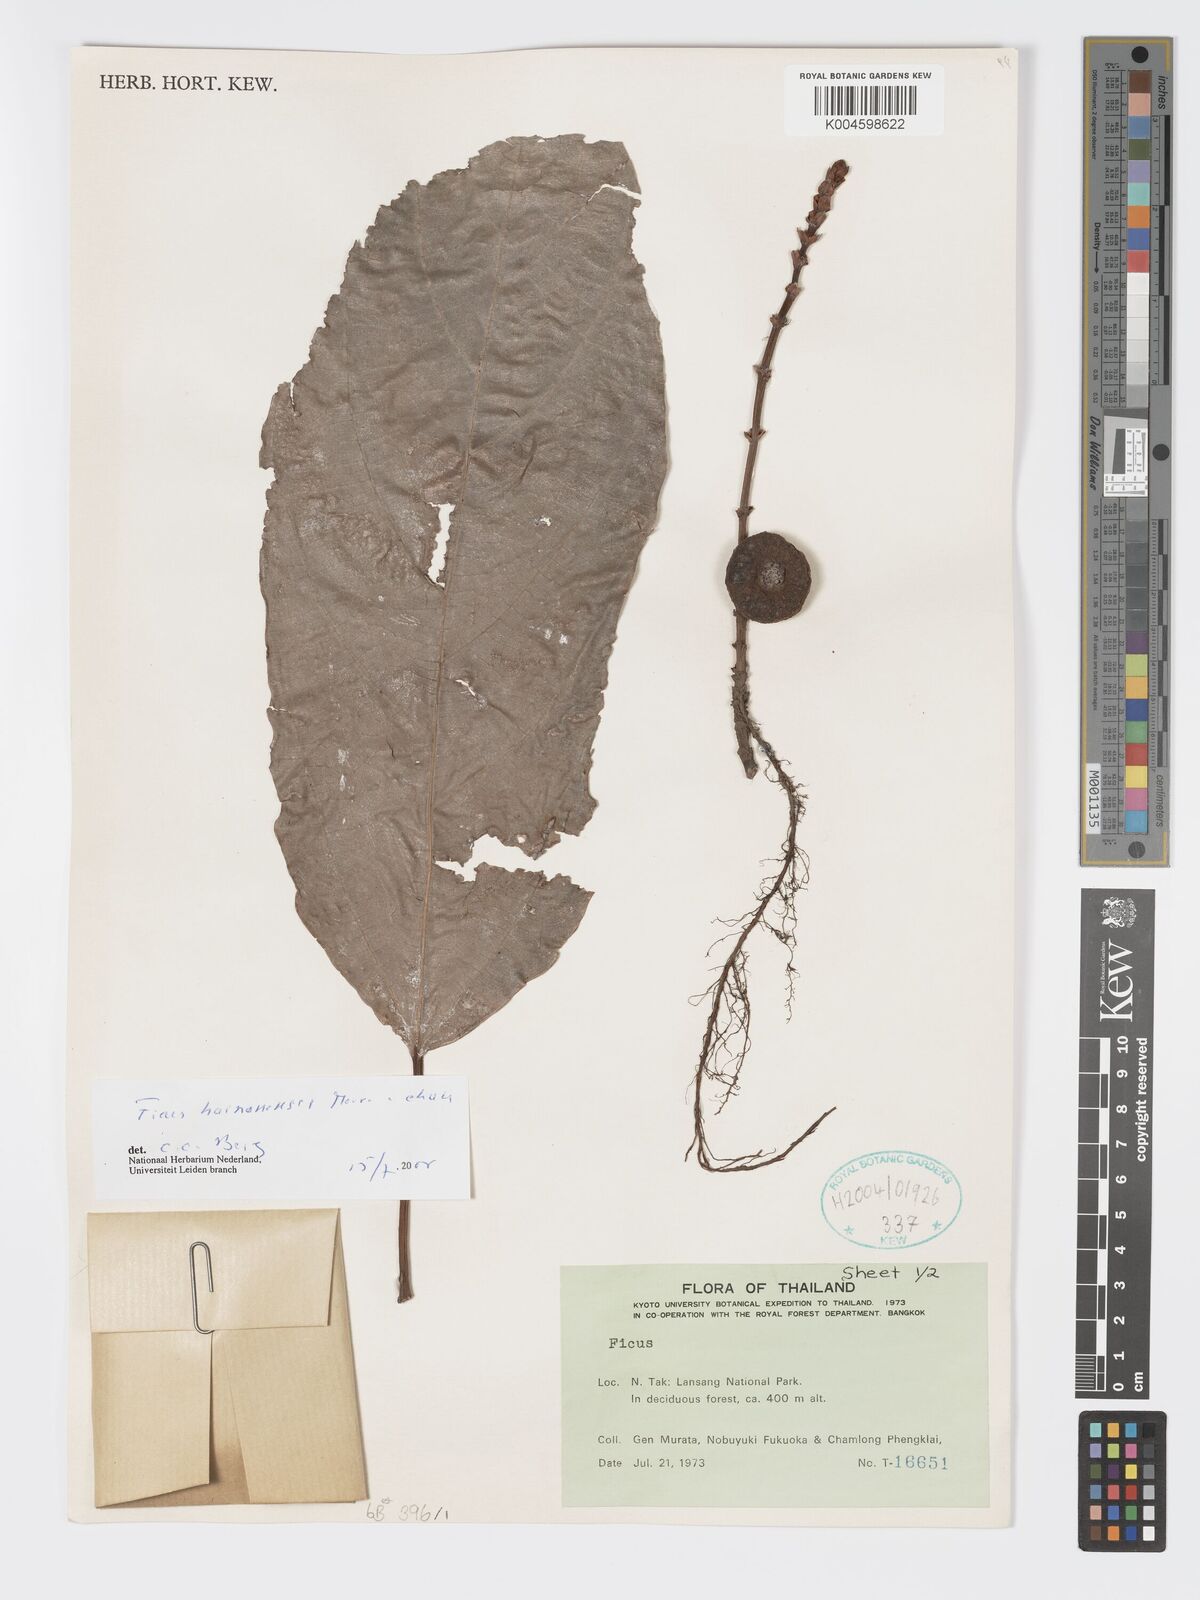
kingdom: Plantae
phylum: Tracheophyta
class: Magnoliopsida
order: Rosales
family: Moraceae
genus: Ficus
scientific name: Ficus auriculata
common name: Roxburgh fig
